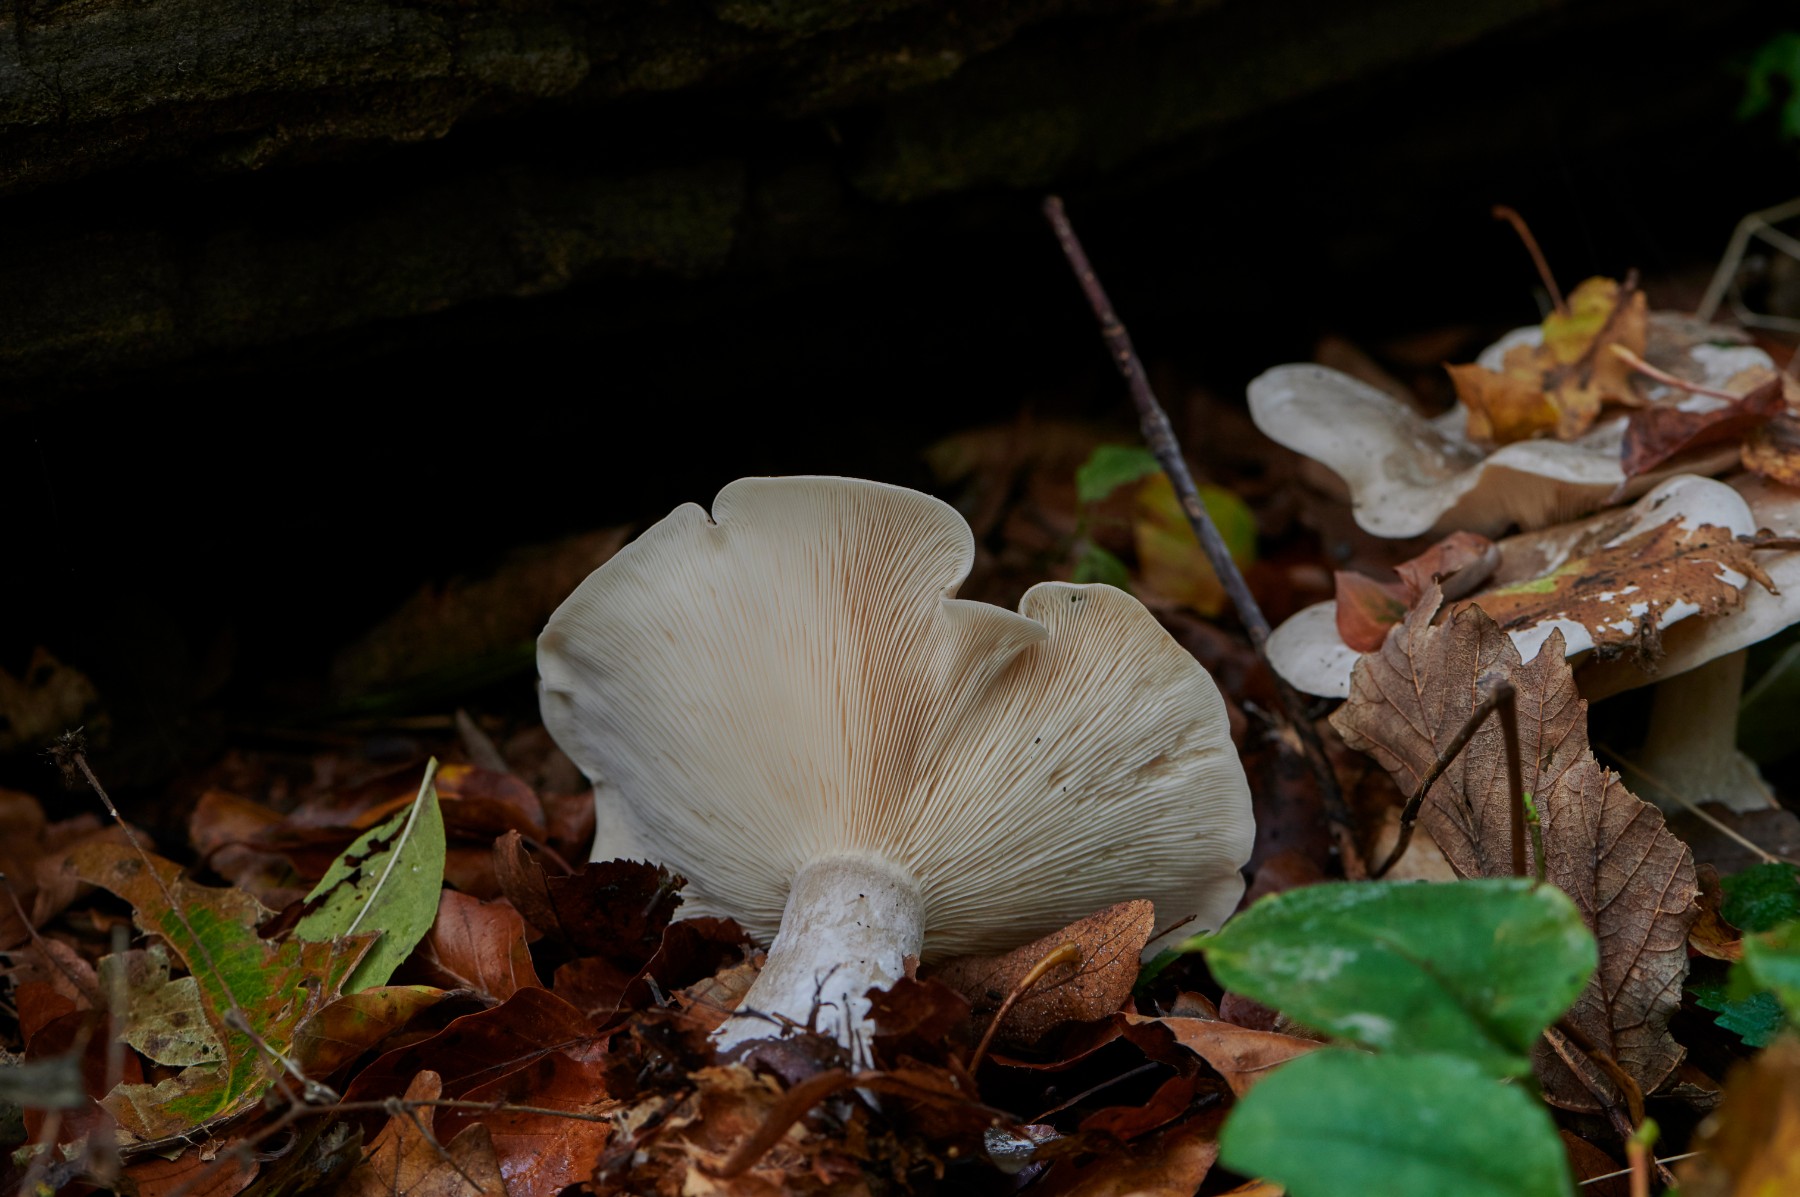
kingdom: Fungi
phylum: Basidiomycota
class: Agaricomycetes
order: Agaricales
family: Tricholomataceae
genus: Clitocybe
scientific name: Clitocybe nebularis
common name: tåge-tragthat
